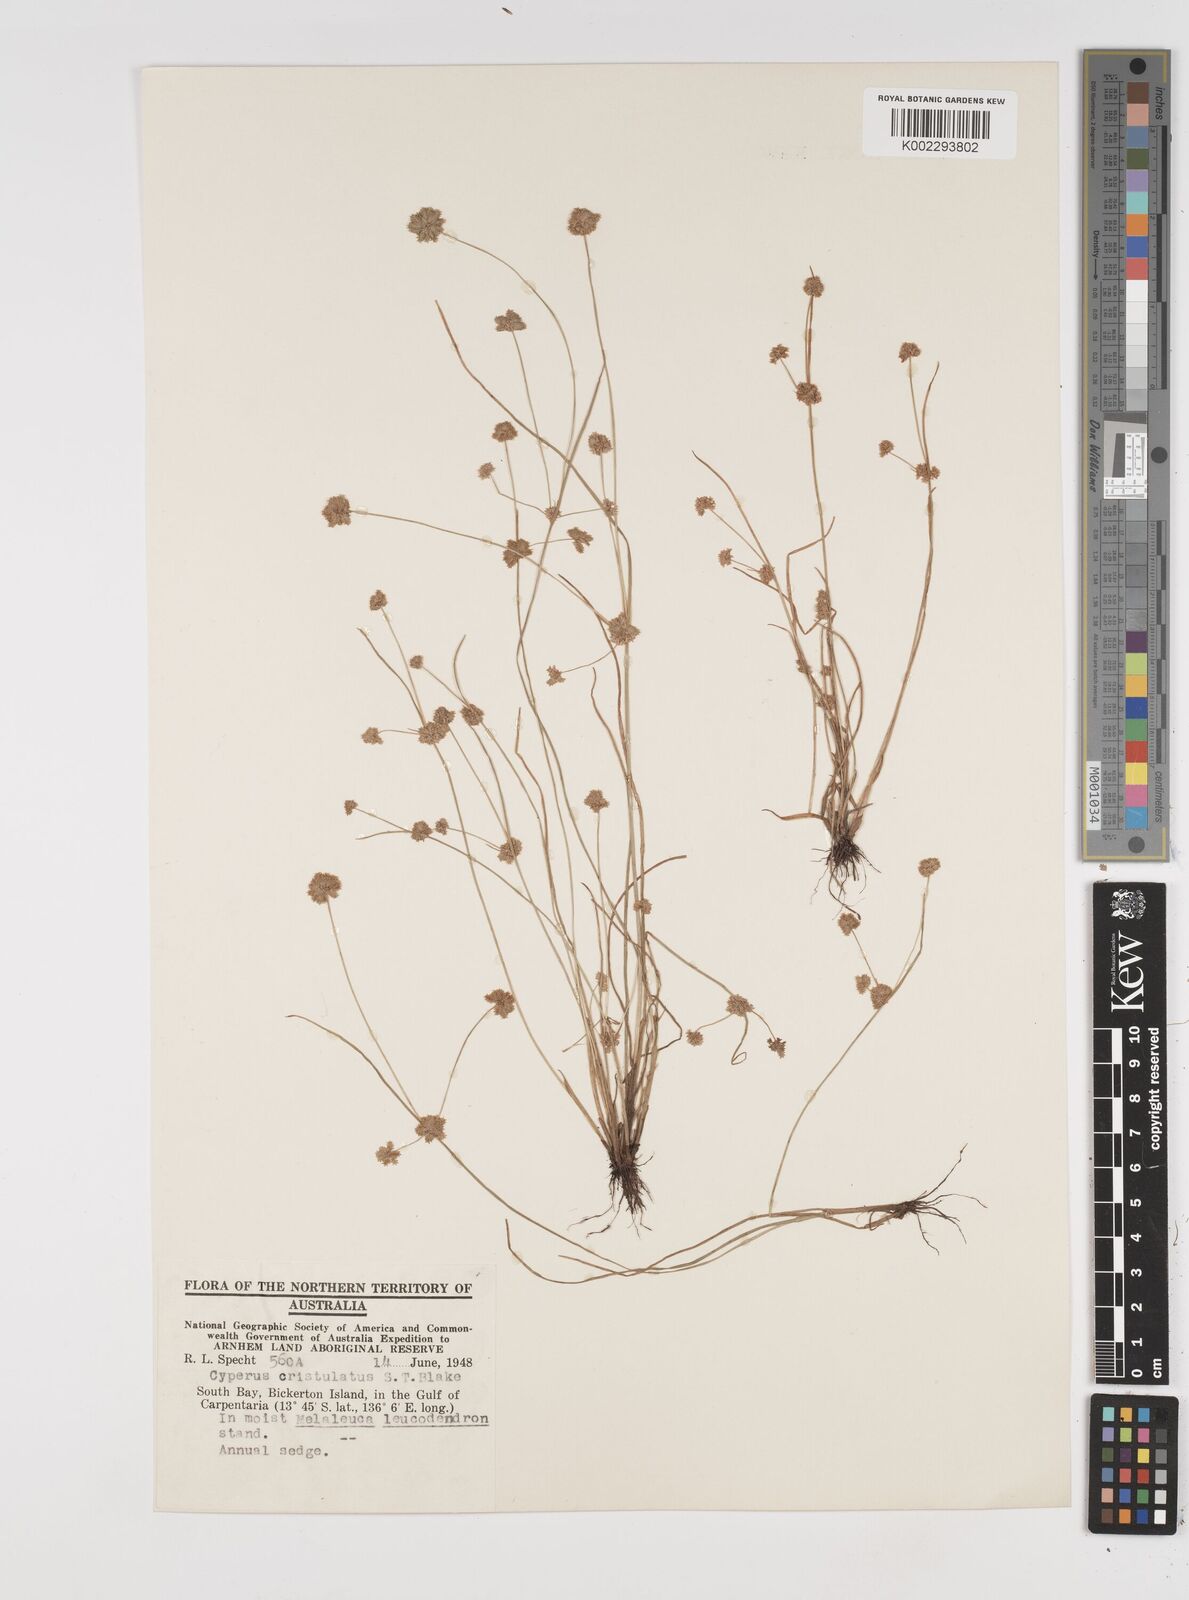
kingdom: Plantae
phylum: Tracheophyta
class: Liliopsida
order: Poales
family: Cyperaceae
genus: Cyperus
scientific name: Cyperus cristulatus
